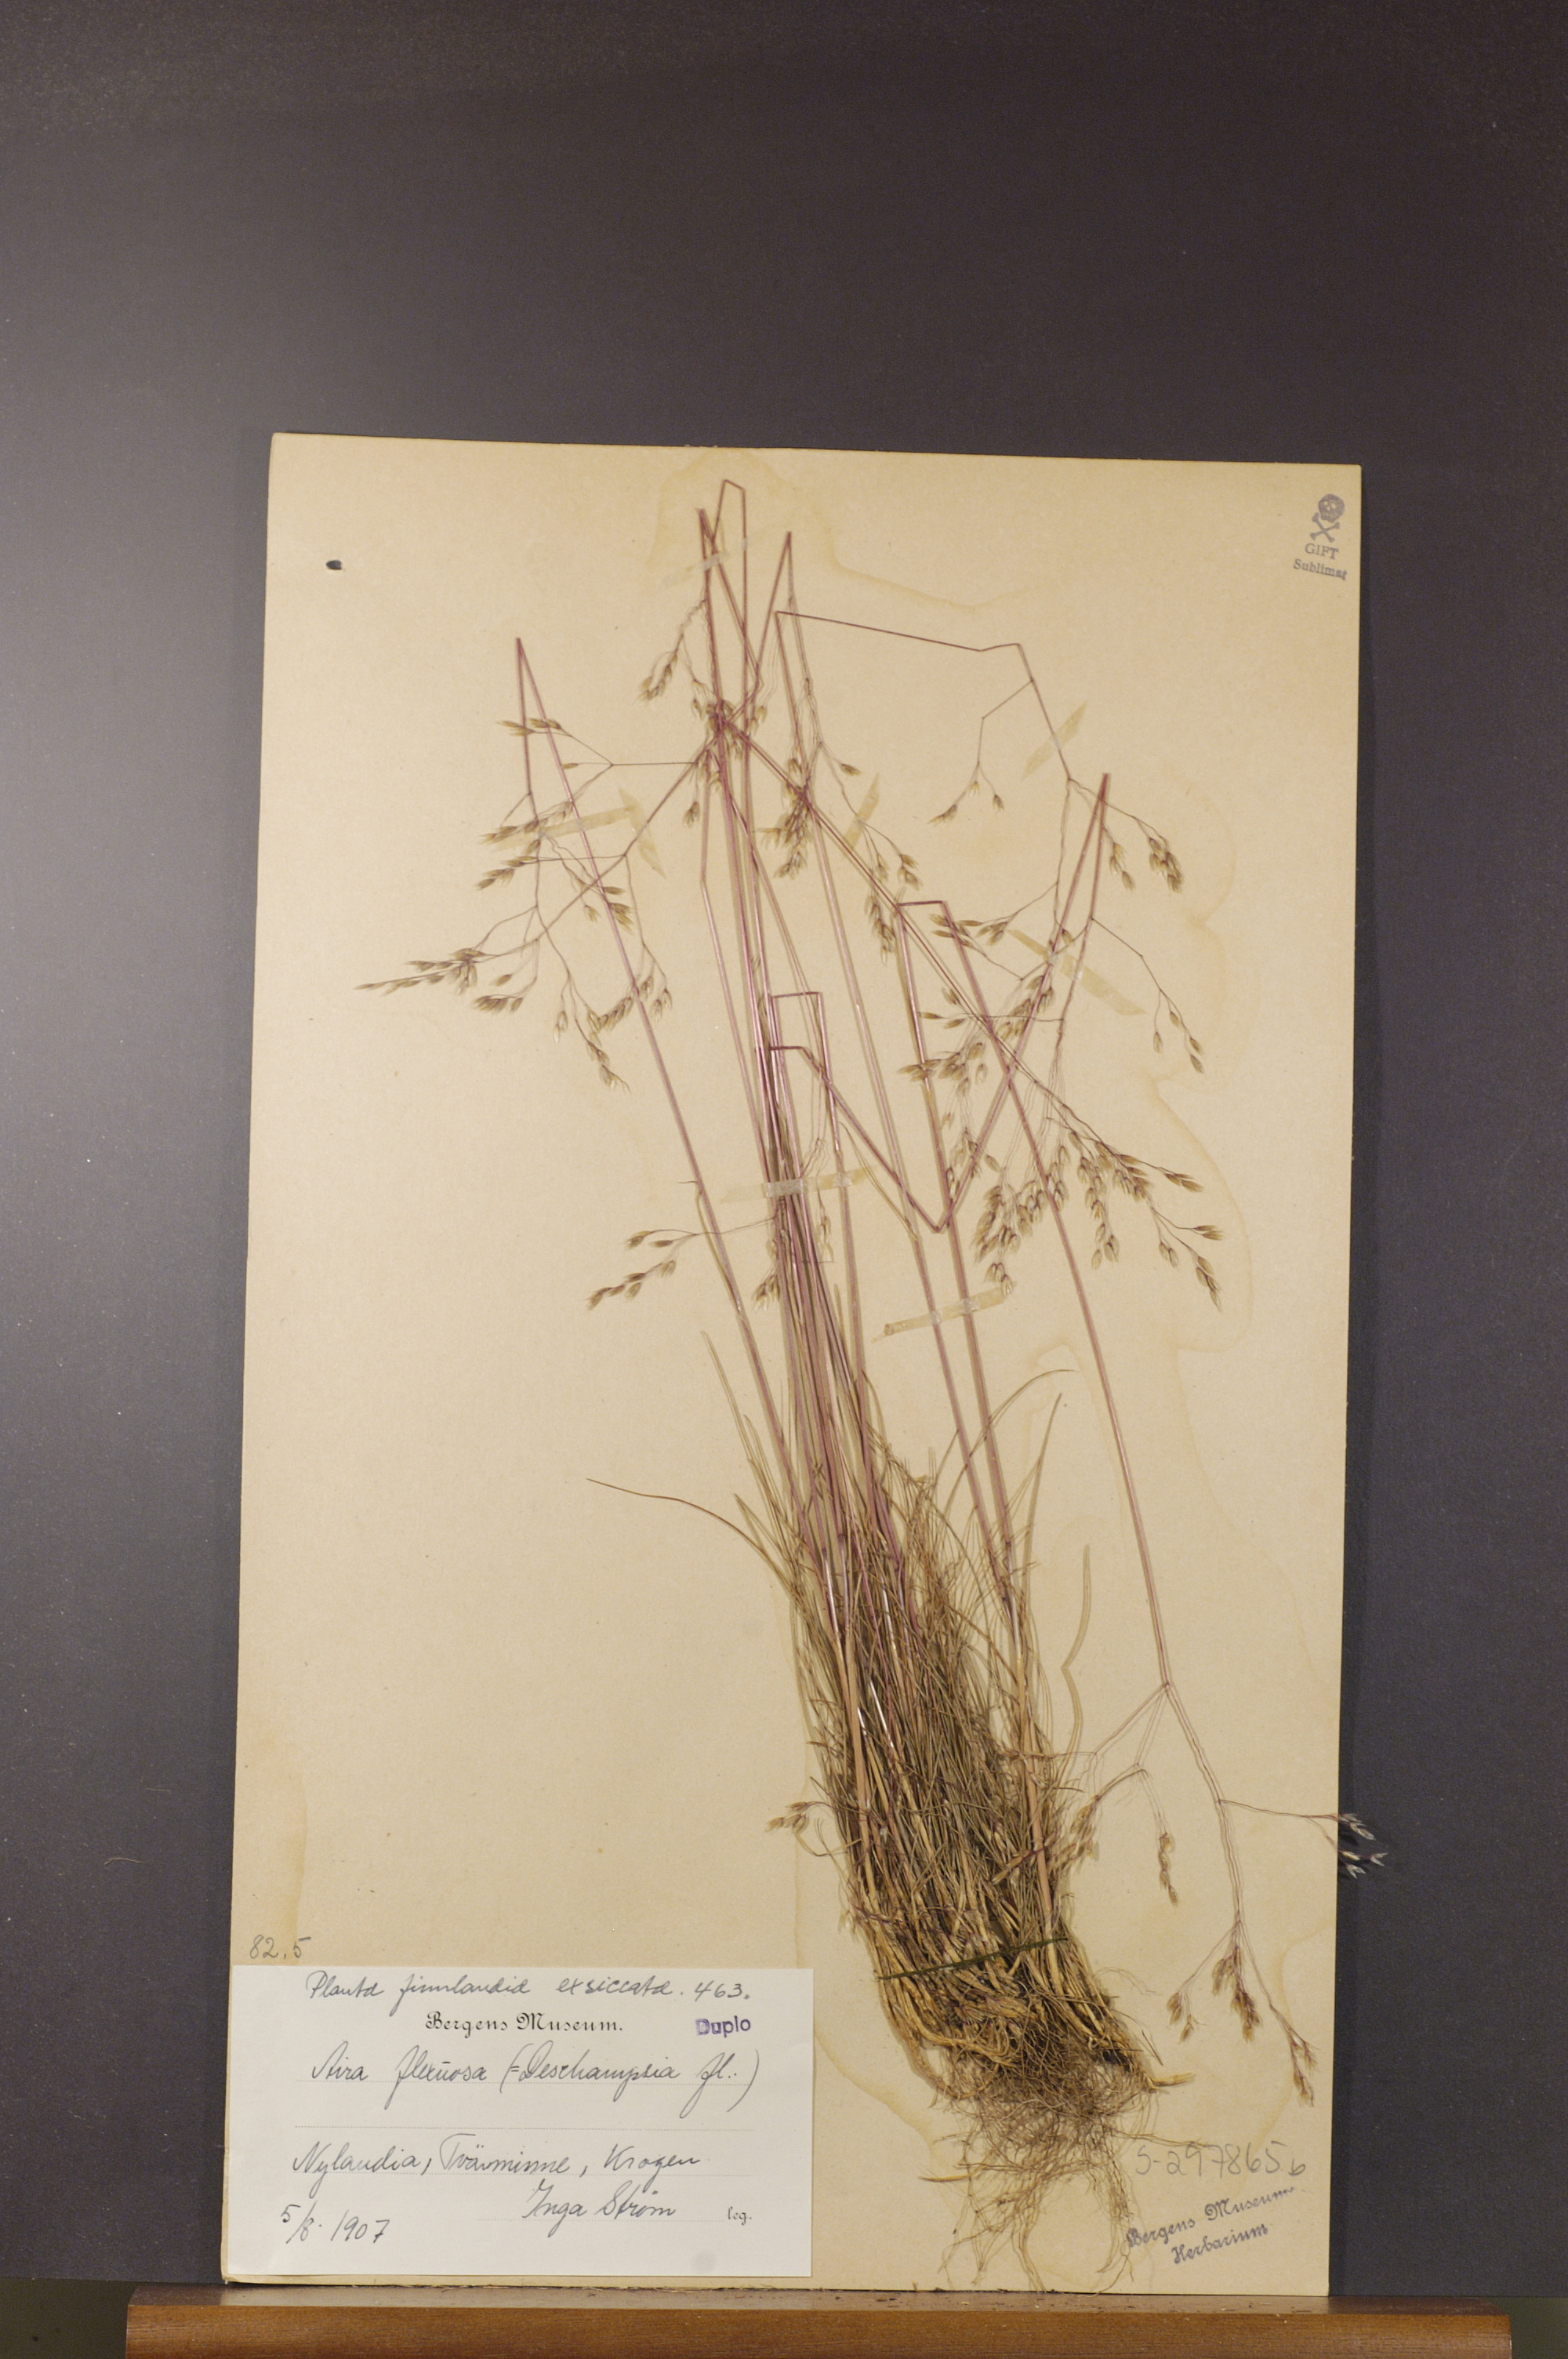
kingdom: Plantae
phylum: Tracheophyta
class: Liliopsida
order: Poales
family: Poaceae
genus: Avenella
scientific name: Avenella flexuosa
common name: Wavy hairgrass
